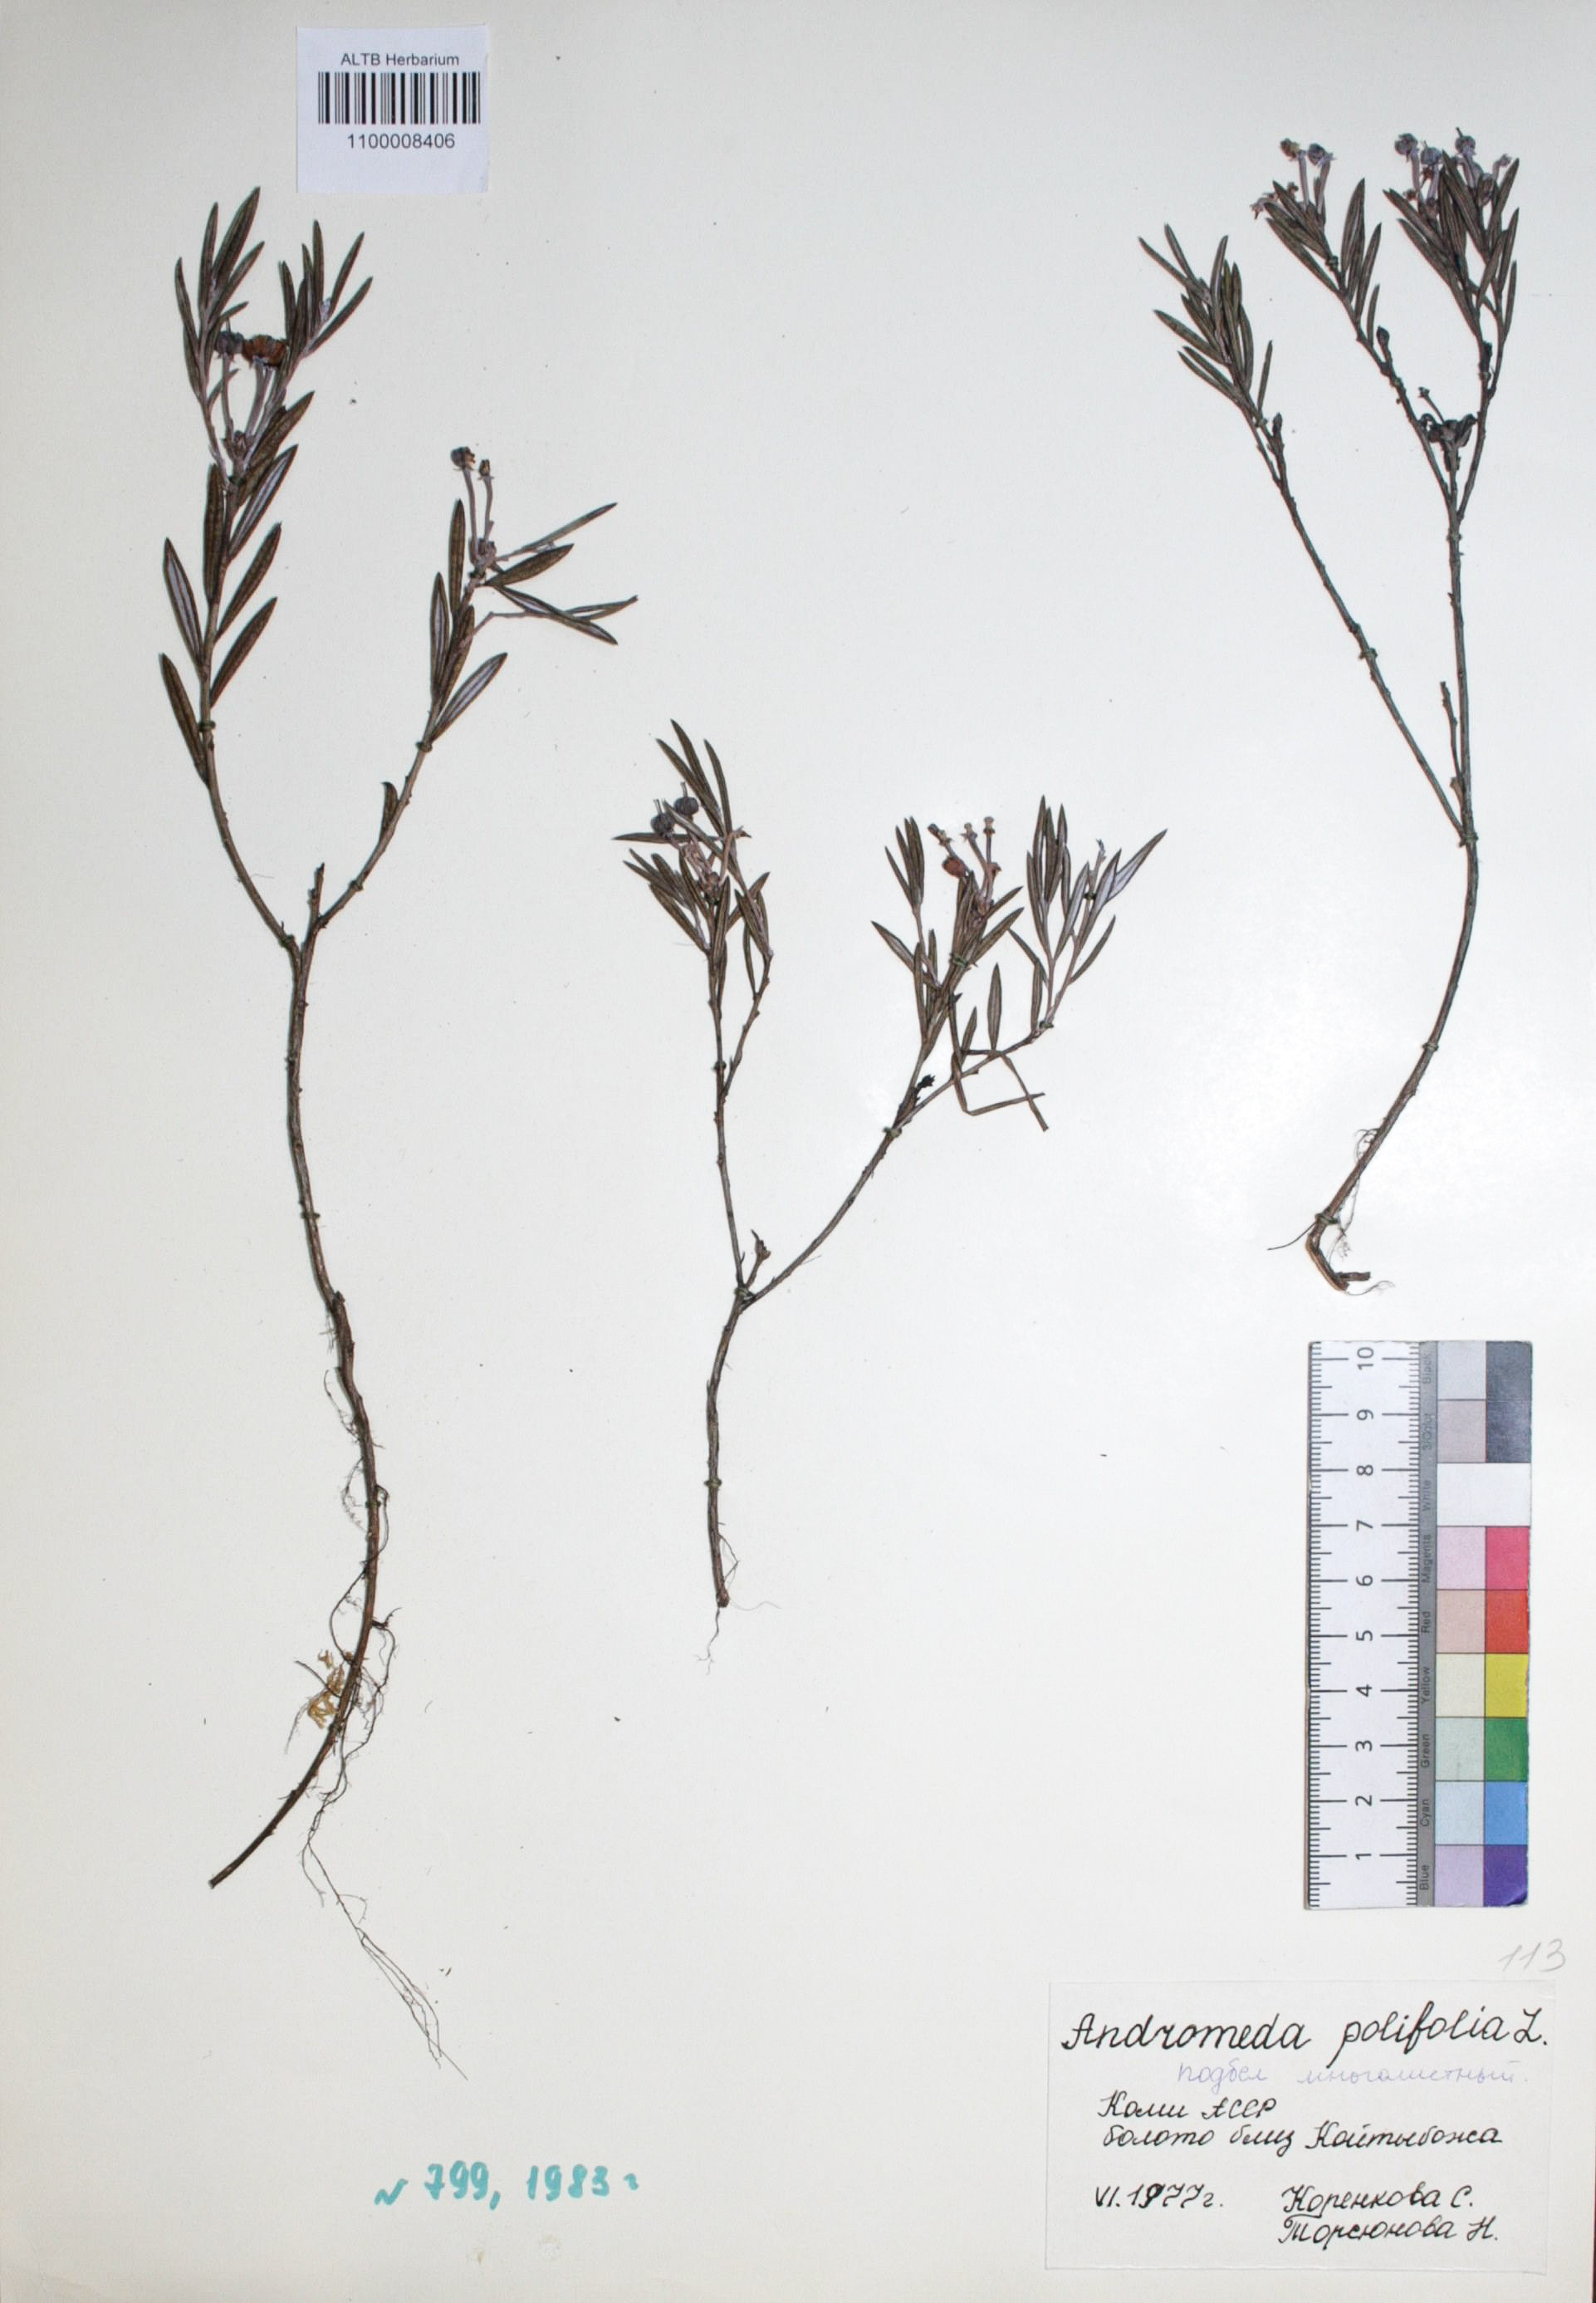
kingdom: Plantae
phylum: Tracheophyta
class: Magnoliopsida
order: Ericales
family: Ericaceae
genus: Andromeda
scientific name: Andromeda polifolia
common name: Bog-rosemary
